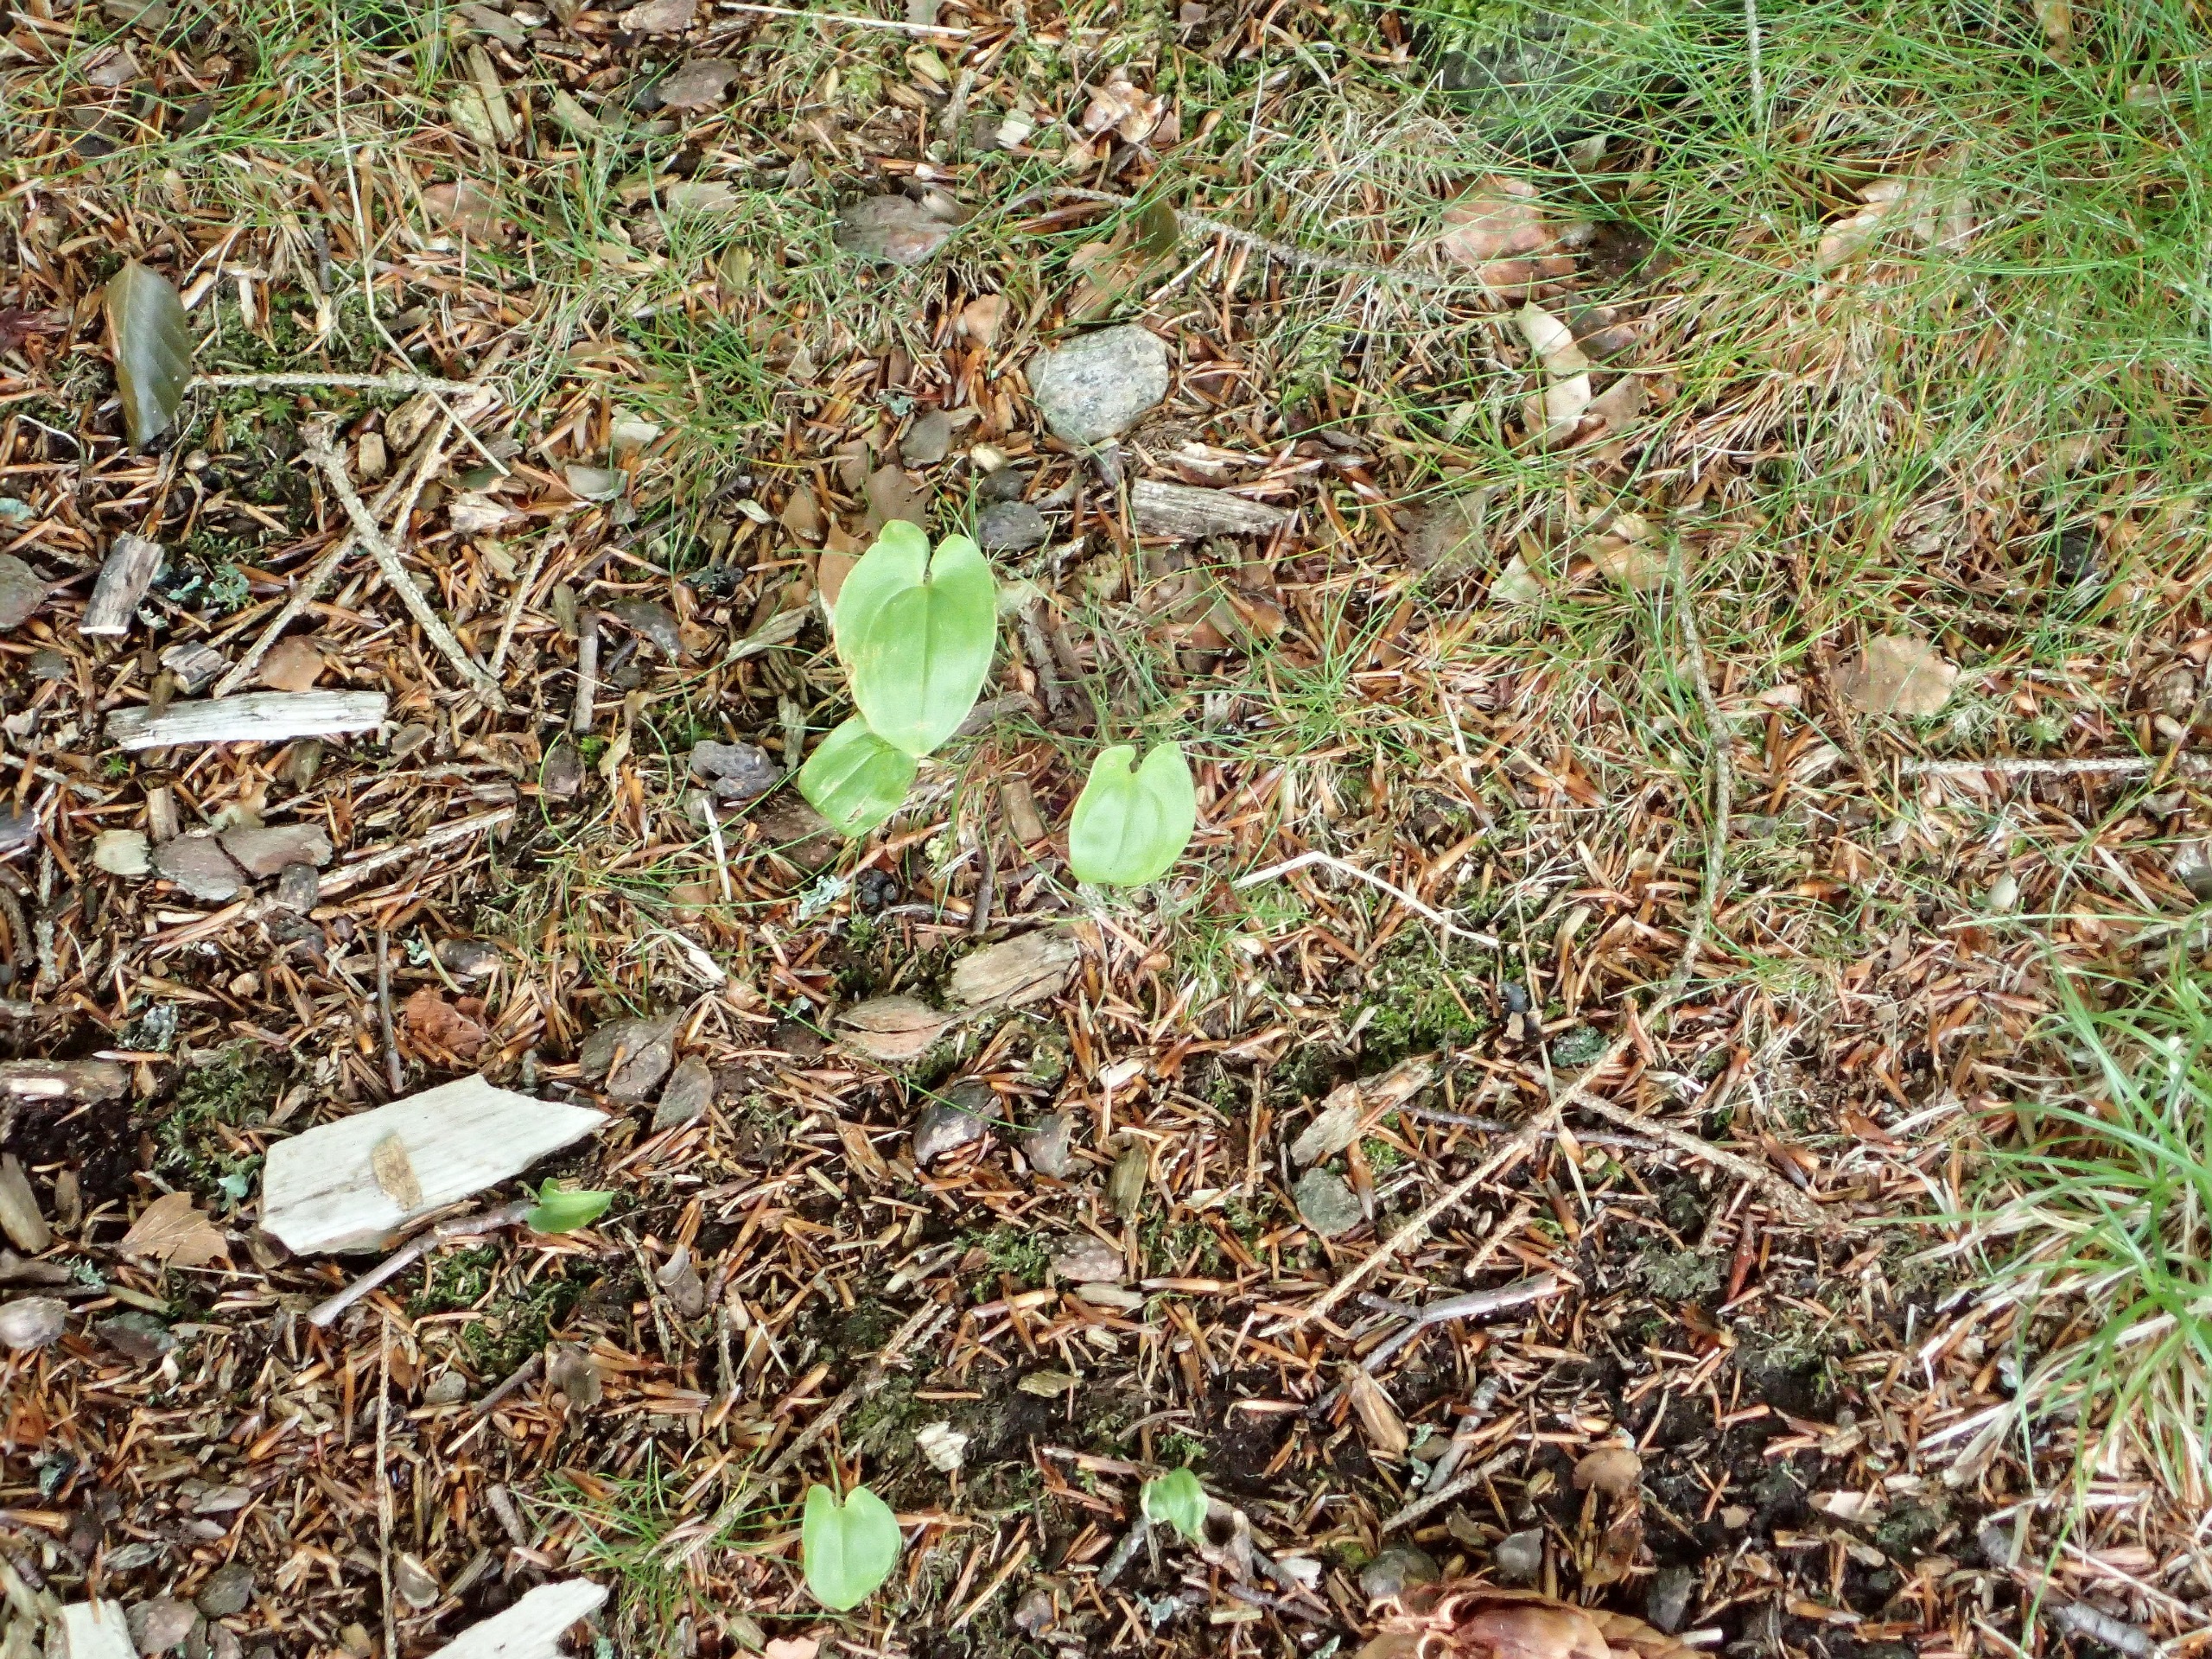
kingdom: Plantae
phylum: Tracheophyta
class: Liliopsida
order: Asparagales
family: Asparagaceae
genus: Maianthemum
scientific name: Maianthemum bifolium
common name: Majblomst
